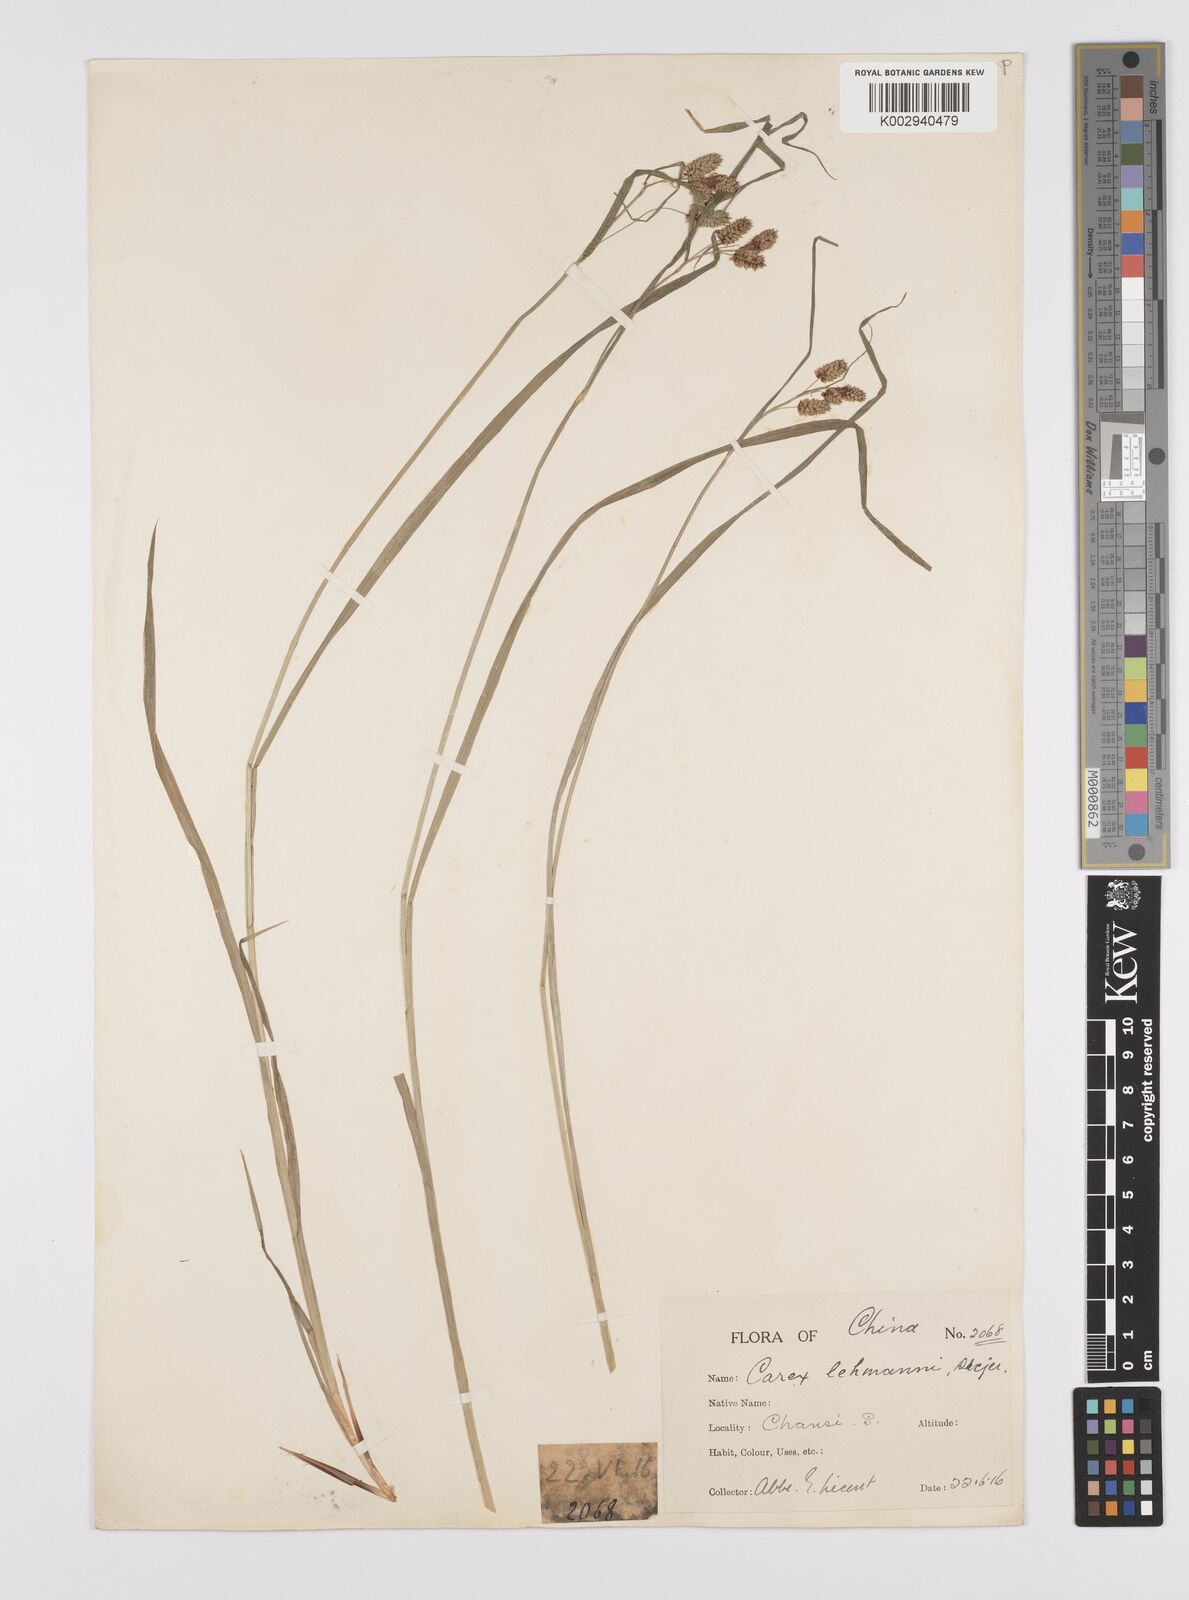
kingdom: Plantae
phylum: Tracheophyta
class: Liliopsida
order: Poales
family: Cyperaceae
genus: Carex
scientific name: Carex hancockiana
